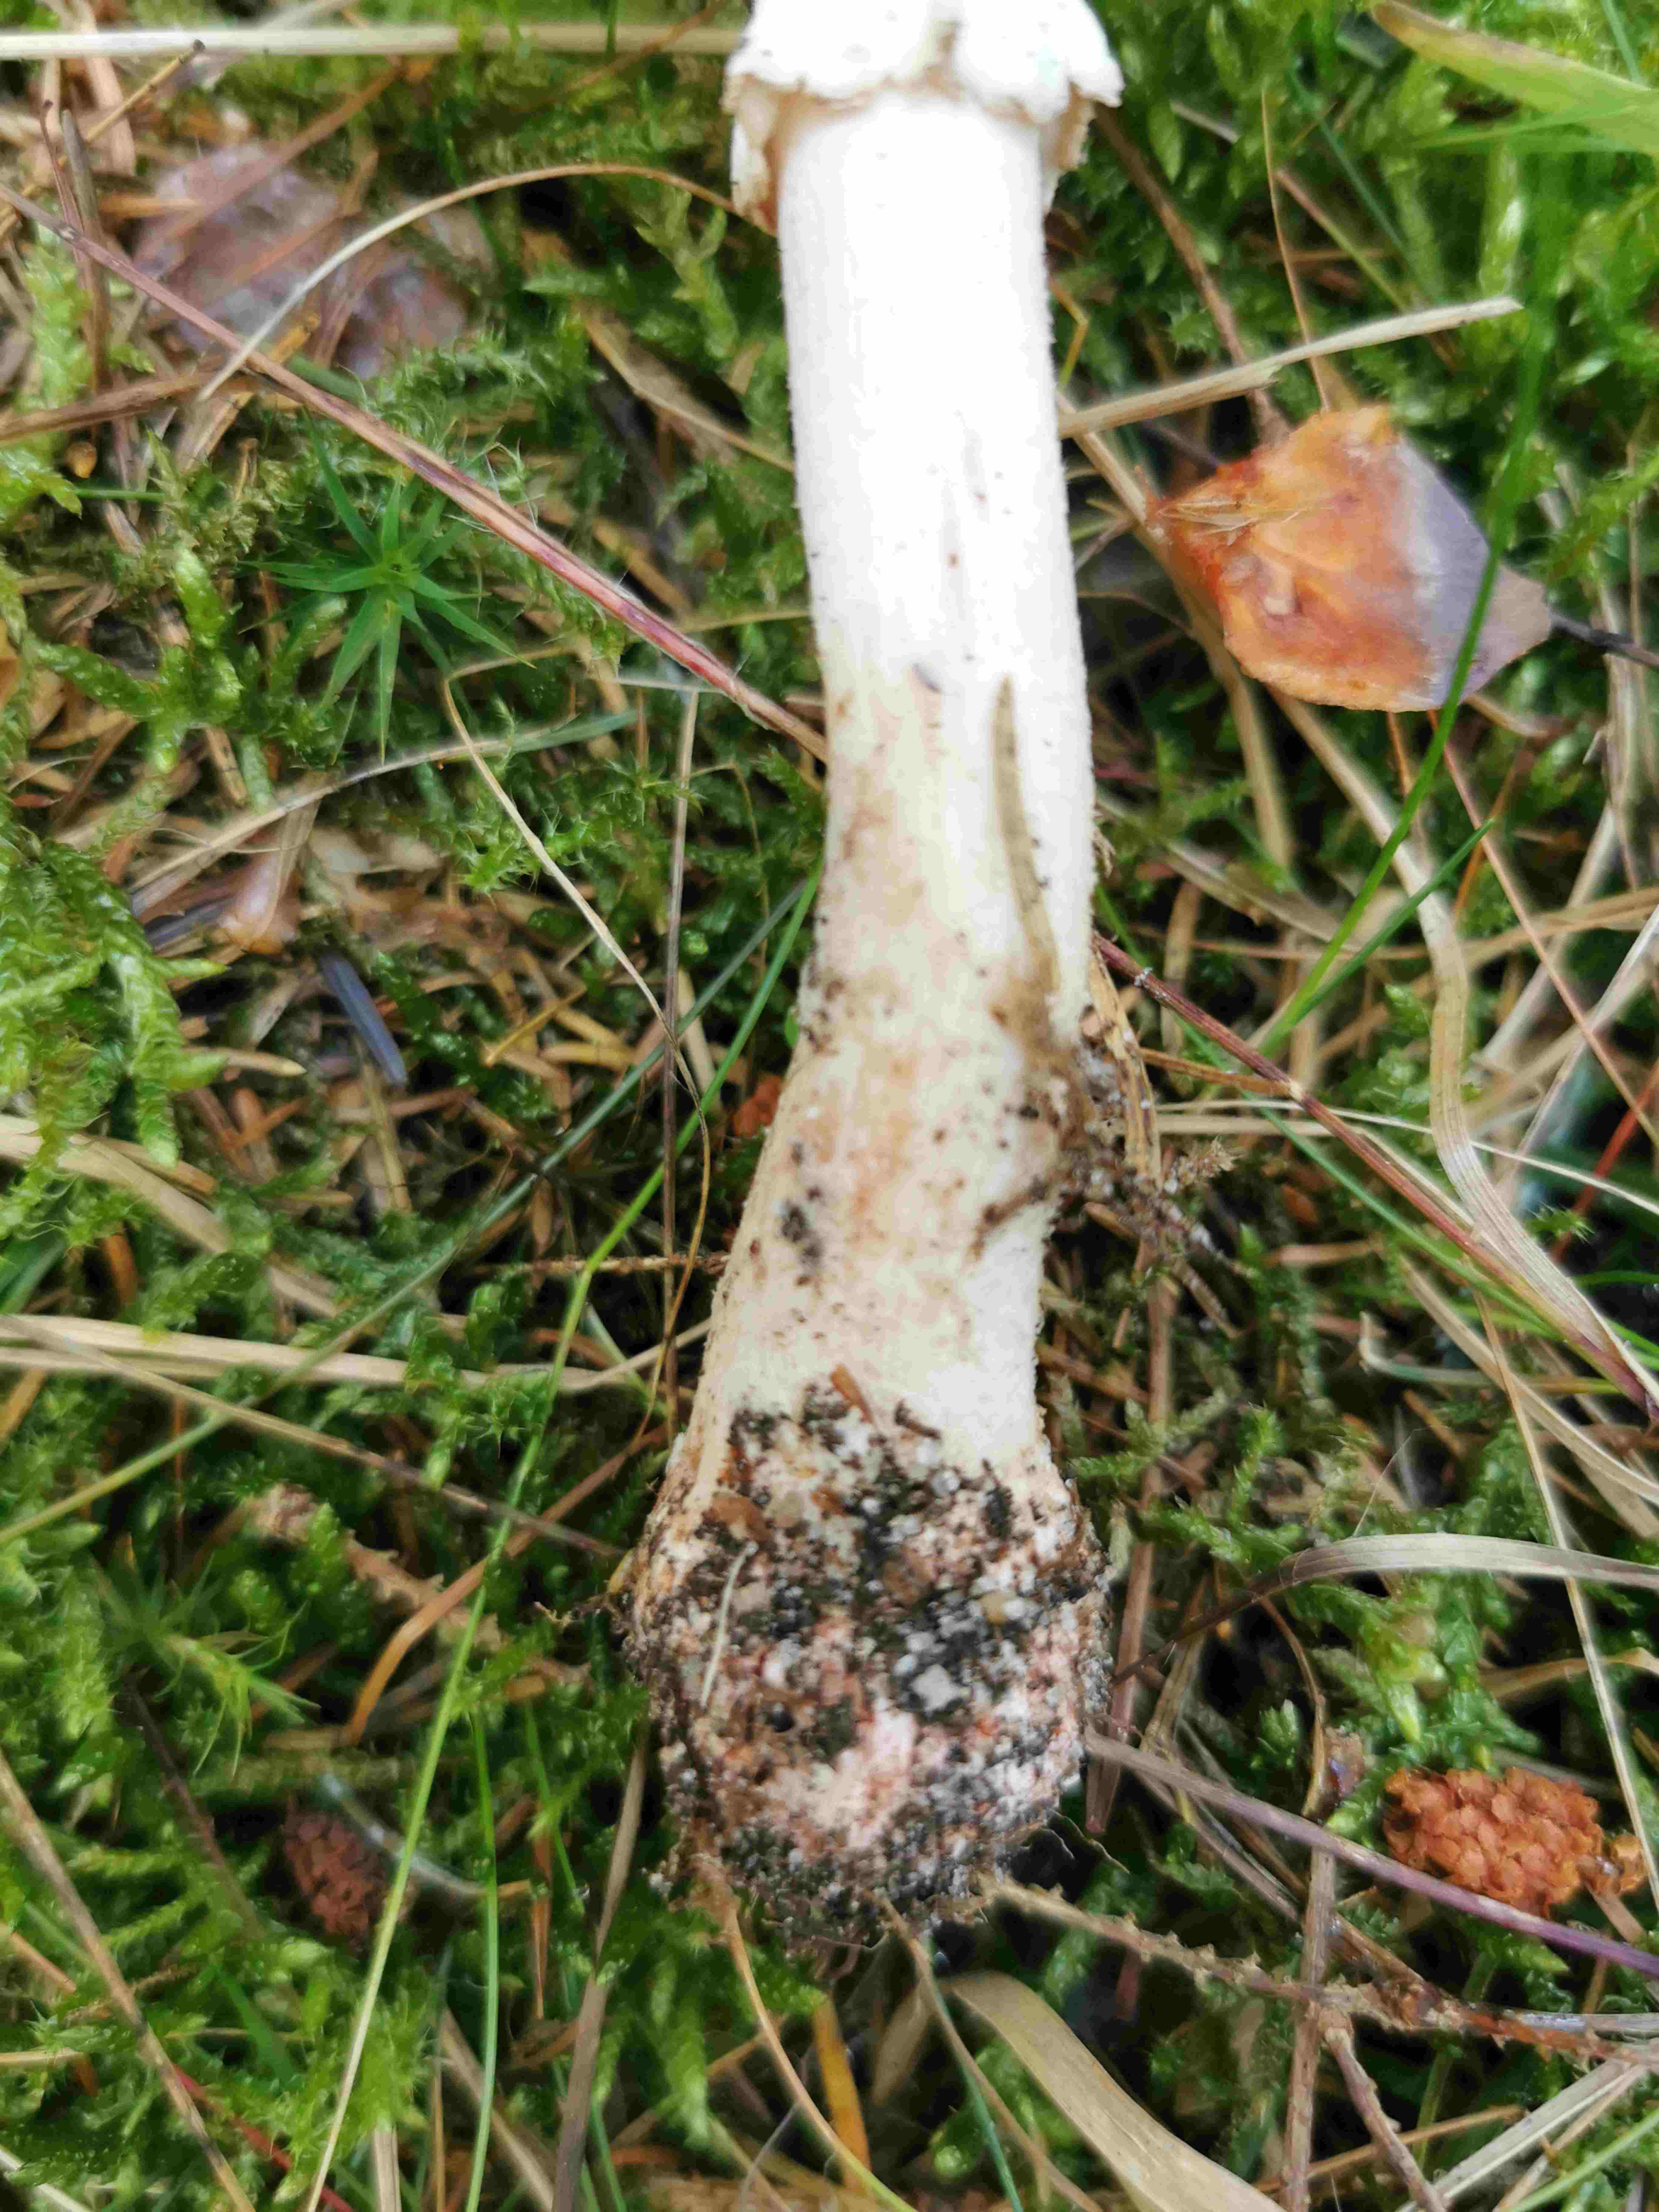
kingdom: Fungi
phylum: Basidiomycota
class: Agaricomycetes
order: Agaricales
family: Amanitaceae
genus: Amanita
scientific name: Amanita rubescens
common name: rødmende fluesvamp
